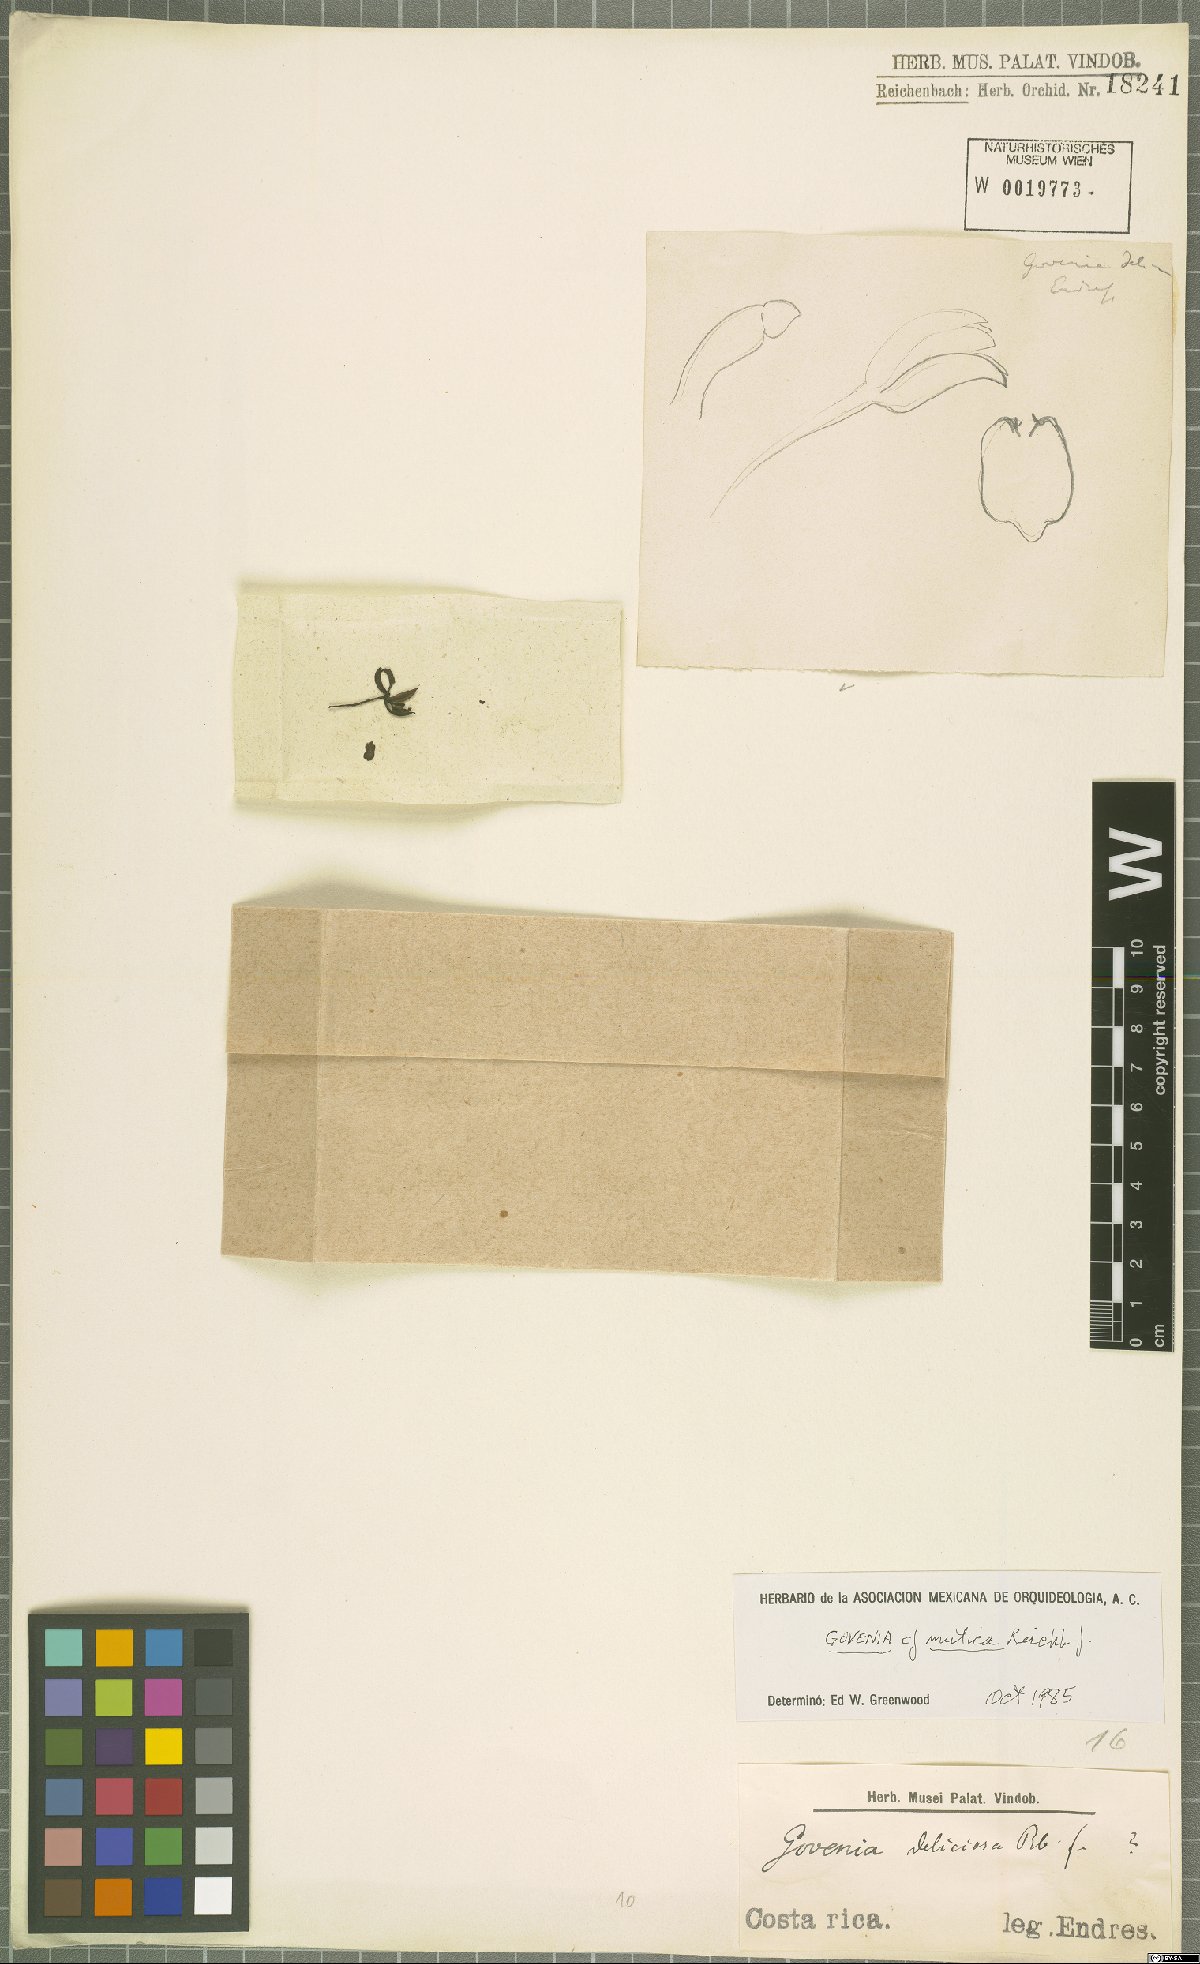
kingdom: Plantae
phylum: Tracheophyta
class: Liliopsida
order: Asparagales
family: Orchidaceae
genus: Govenia
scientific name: Govenia alba
